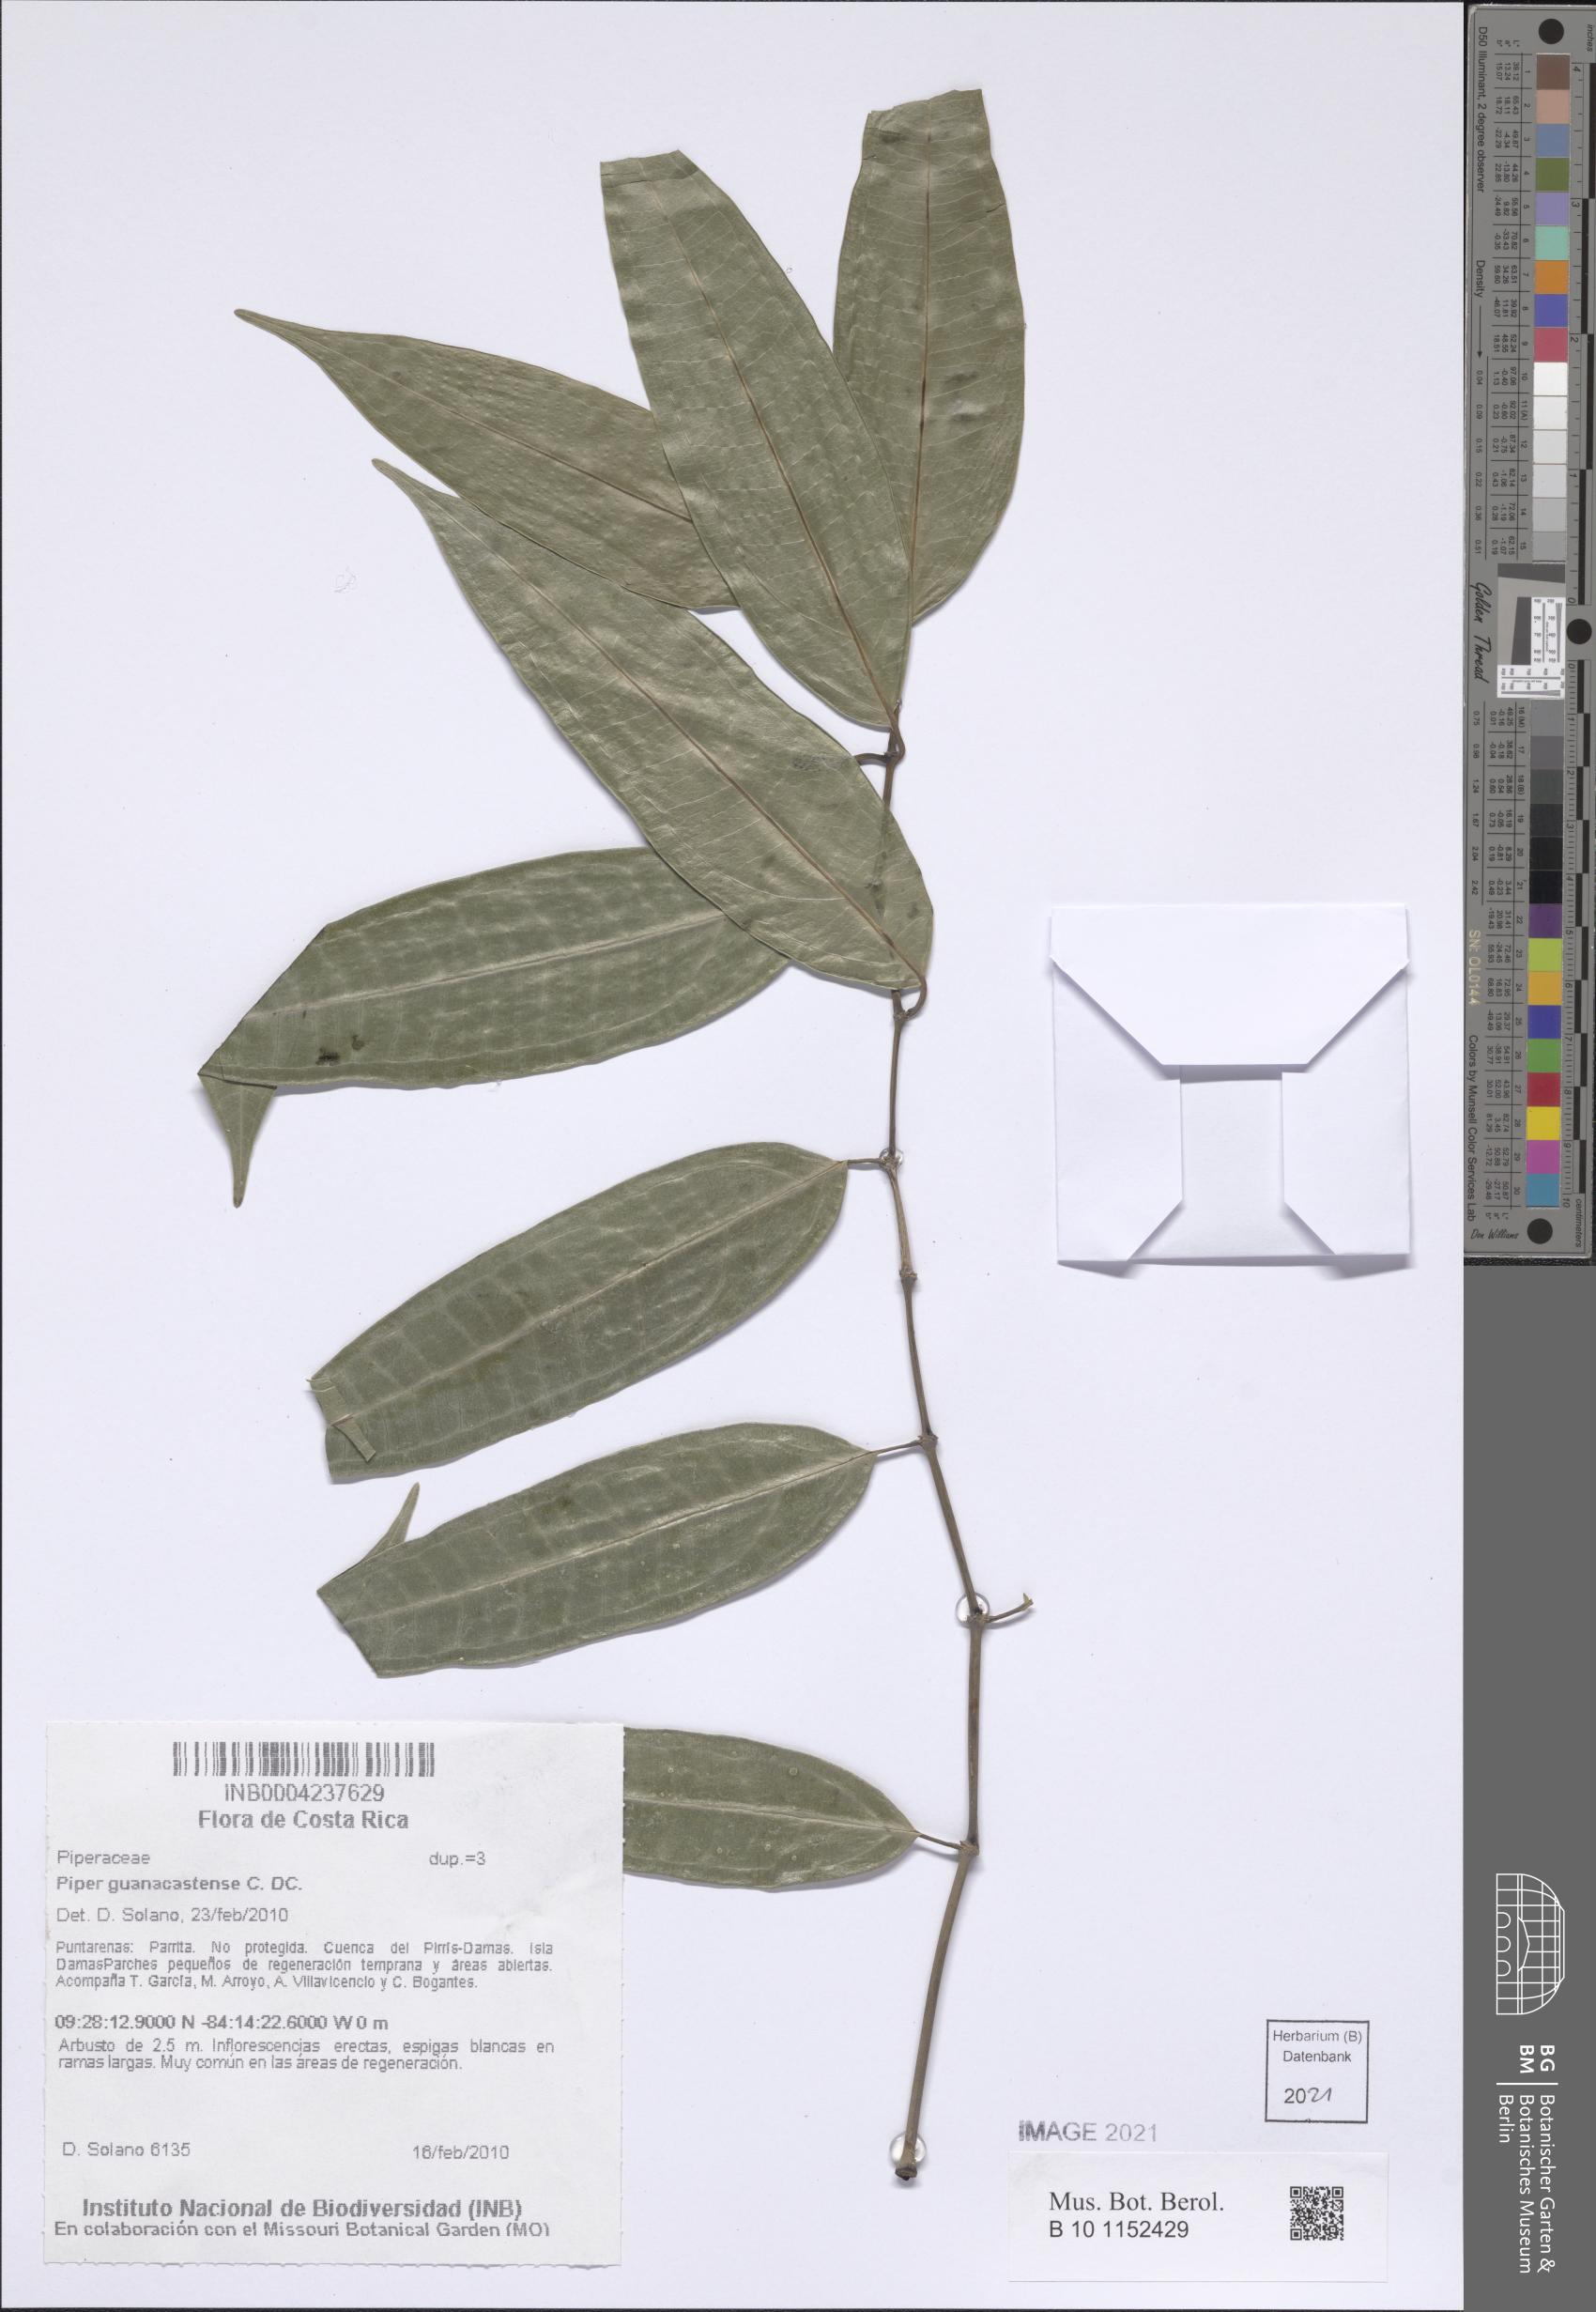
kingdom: Plantae
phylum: Tracheophyta
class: Magnoliopsida
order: Piperales
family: Piperaceae
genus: Piper
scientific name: Piper guanacostense
